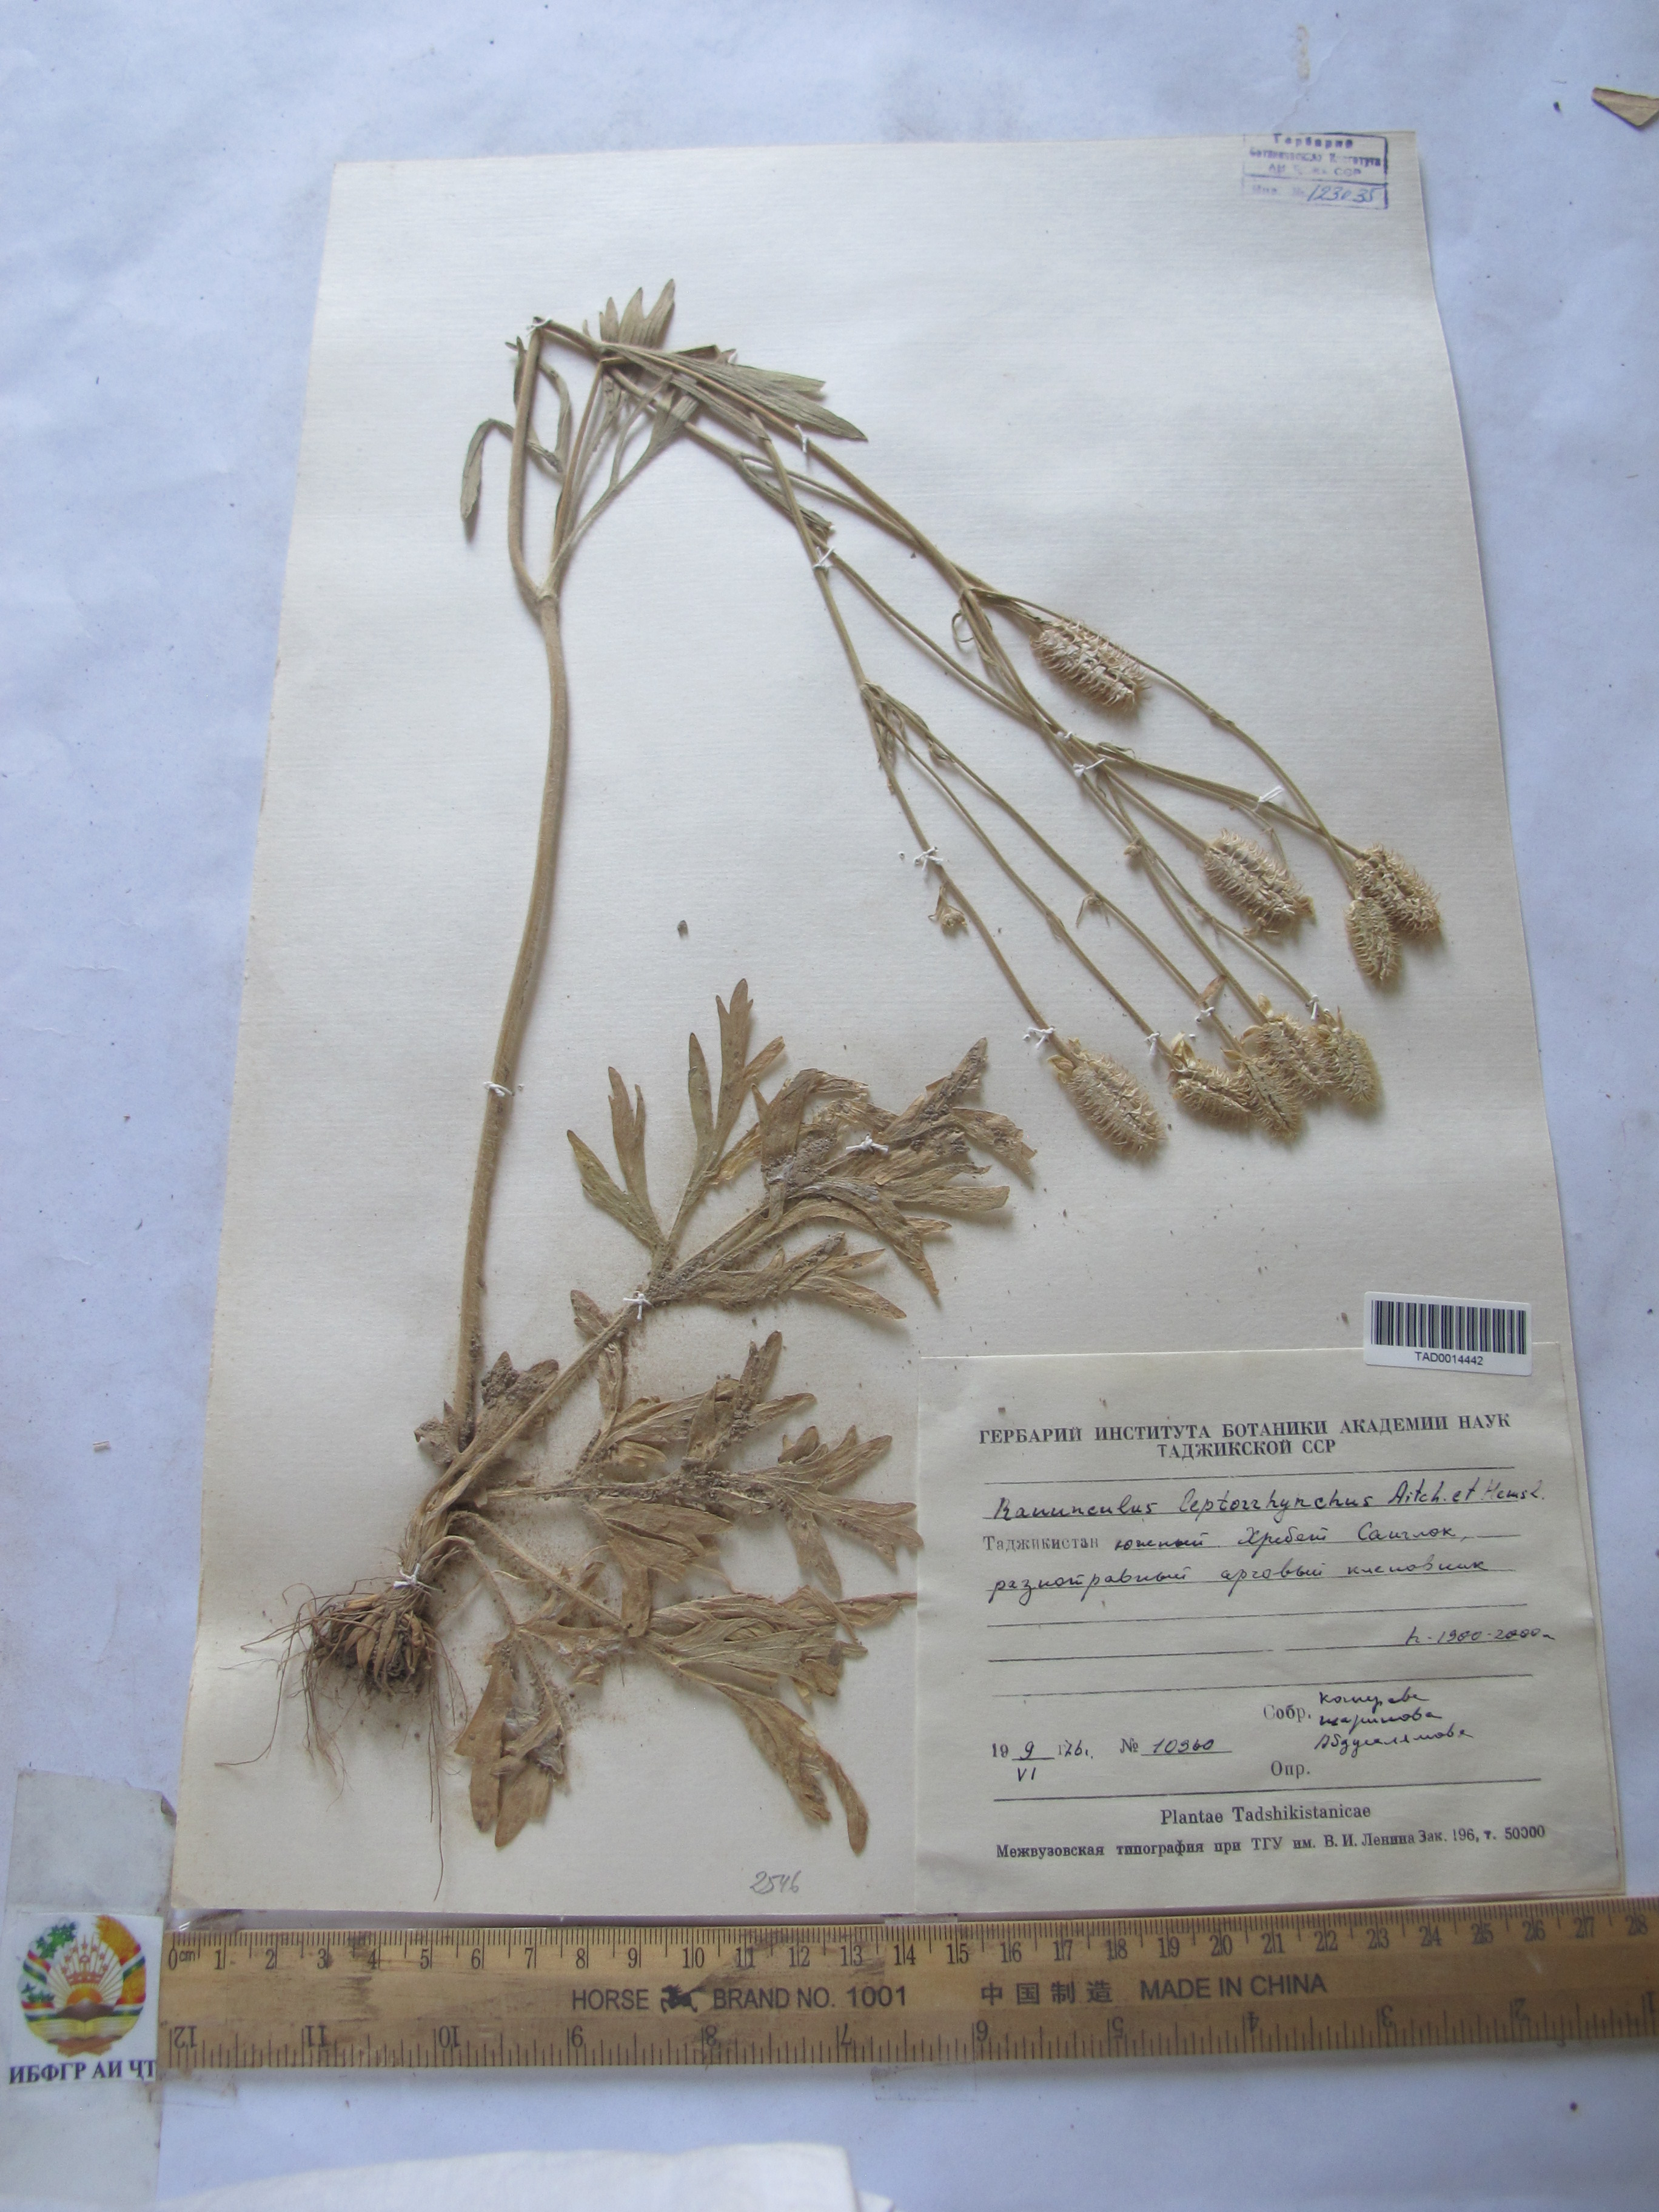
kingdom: Plantae
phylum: Tracheophyta
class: Magnoliopsida
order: Ranunculales
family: Ranunculaceae
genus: Ranunculus
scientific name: Ranunculus leptorrhynchus
